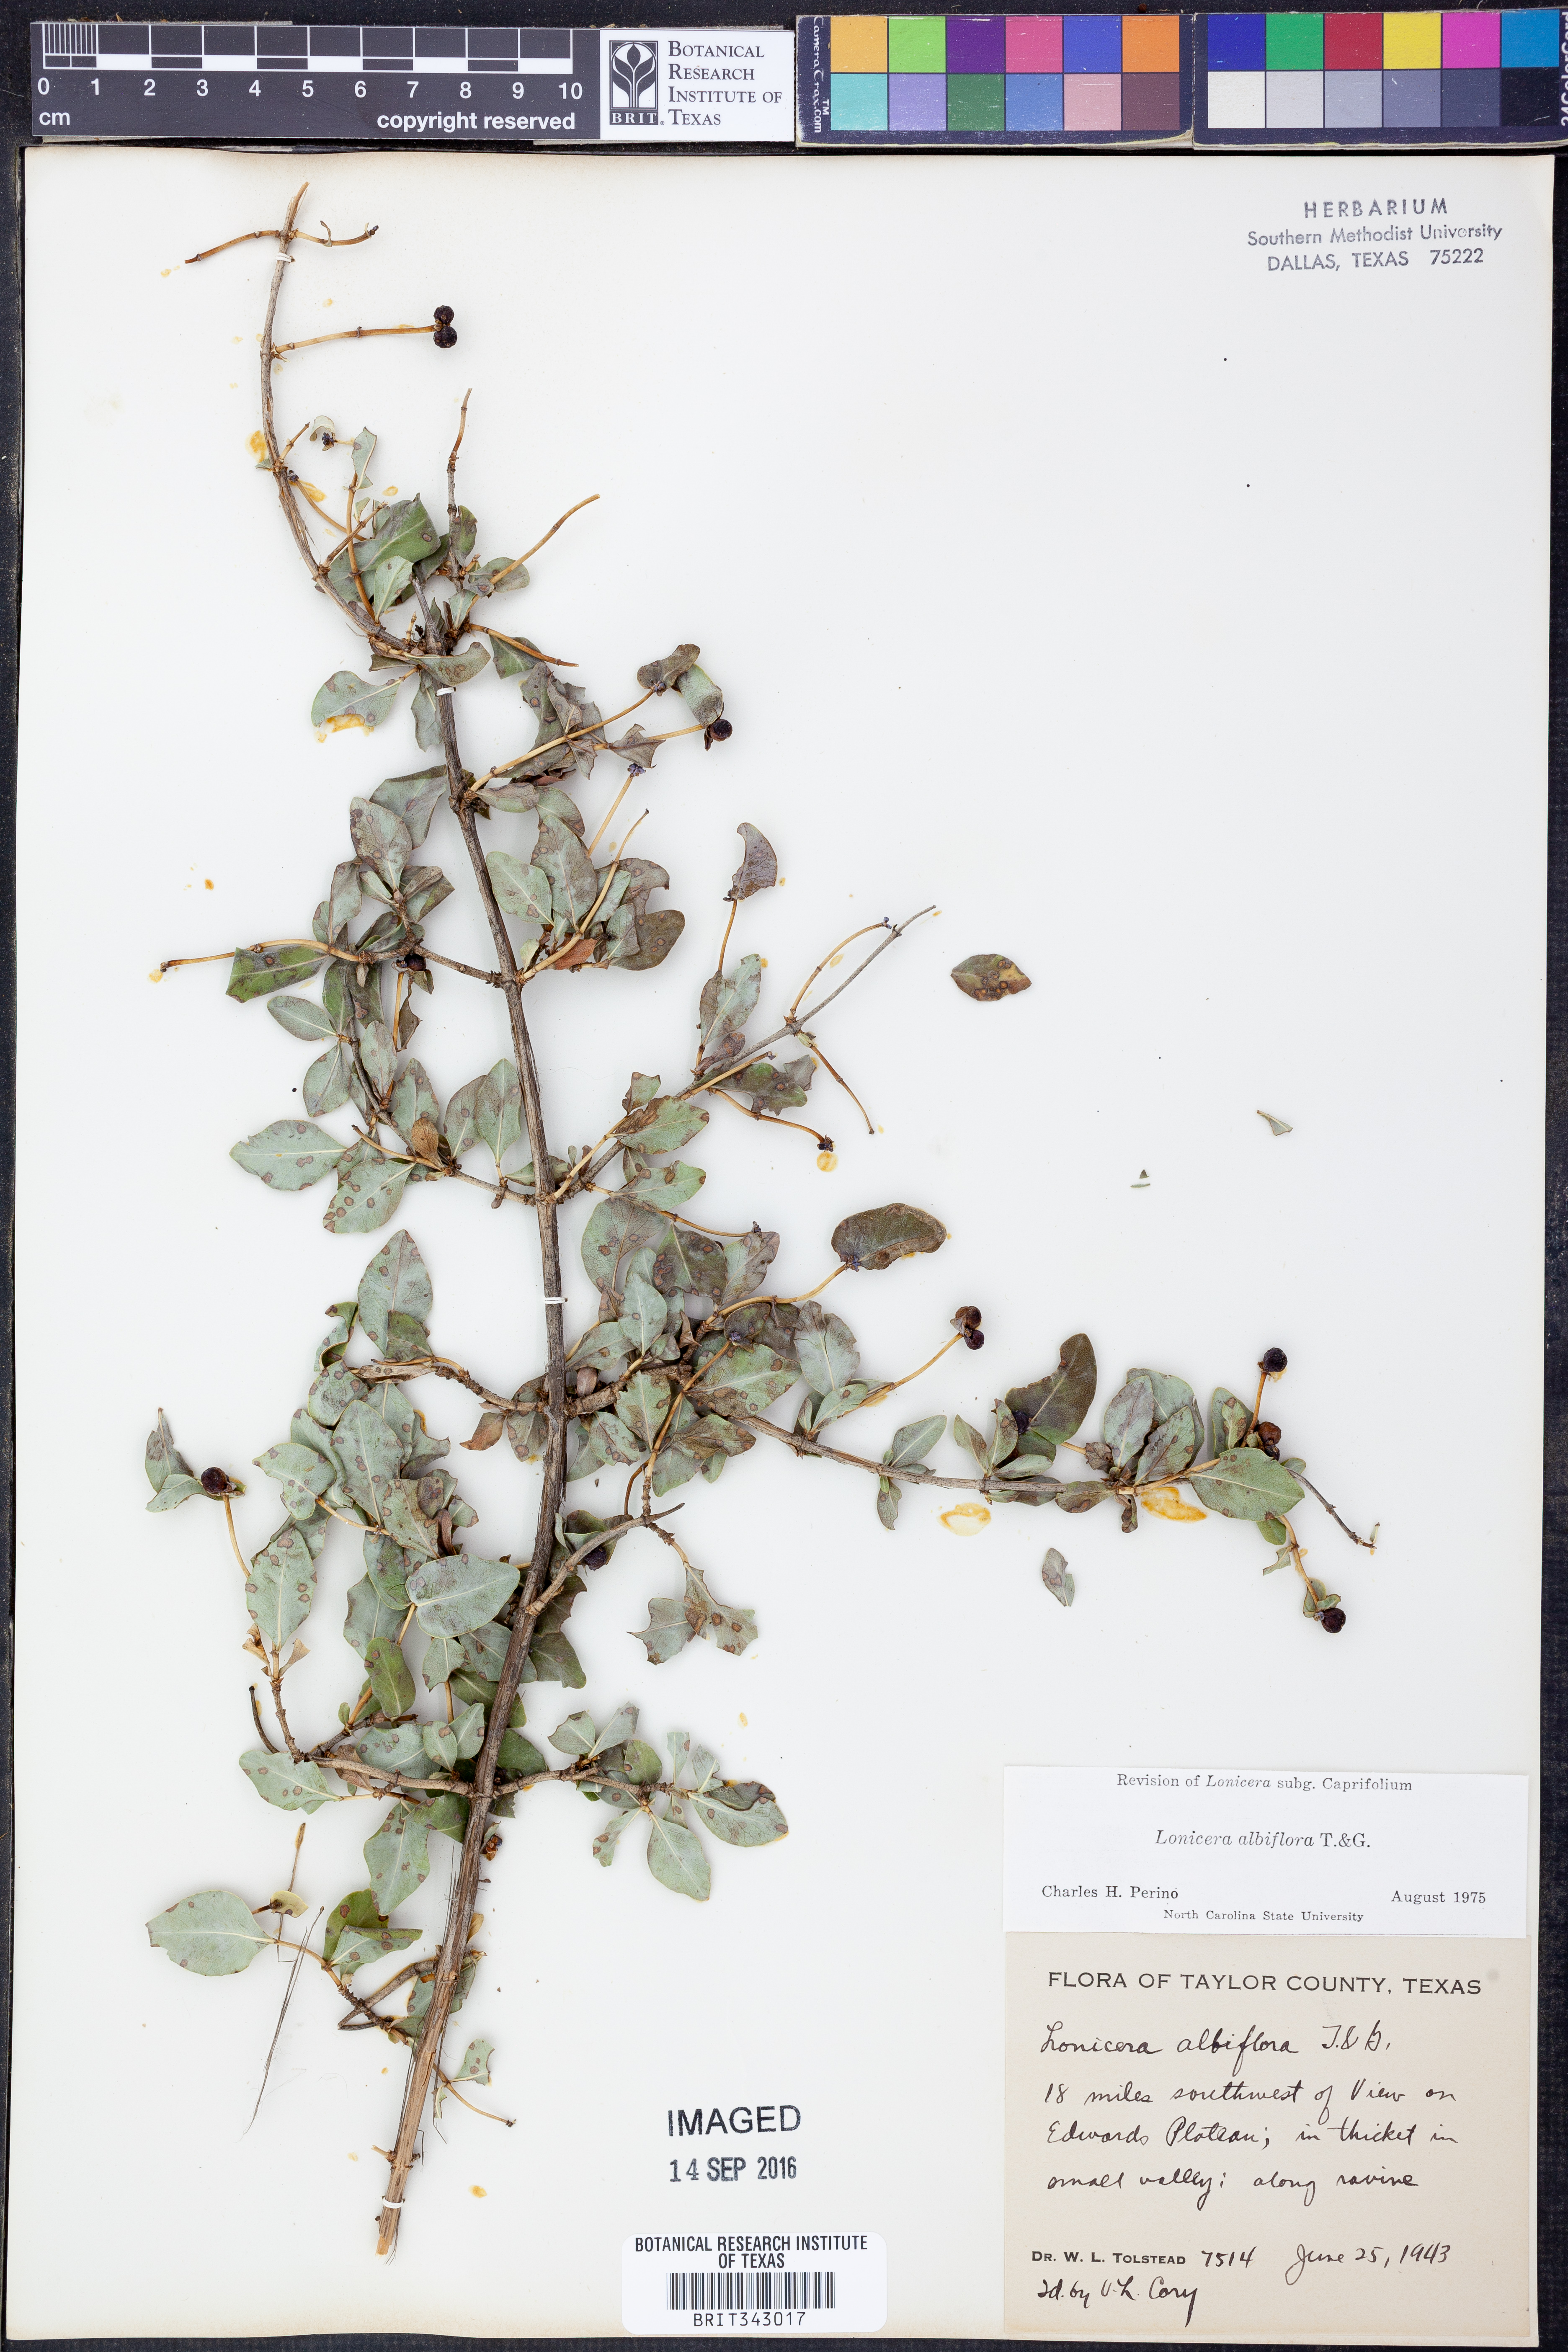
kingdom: Plantae
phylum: Tracheophyta
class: Magnoliopsida
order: Dipsacales
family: Caprifoliaceae
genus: Lonicera
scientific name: Lonicera albiflora
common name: White honeysuckle
